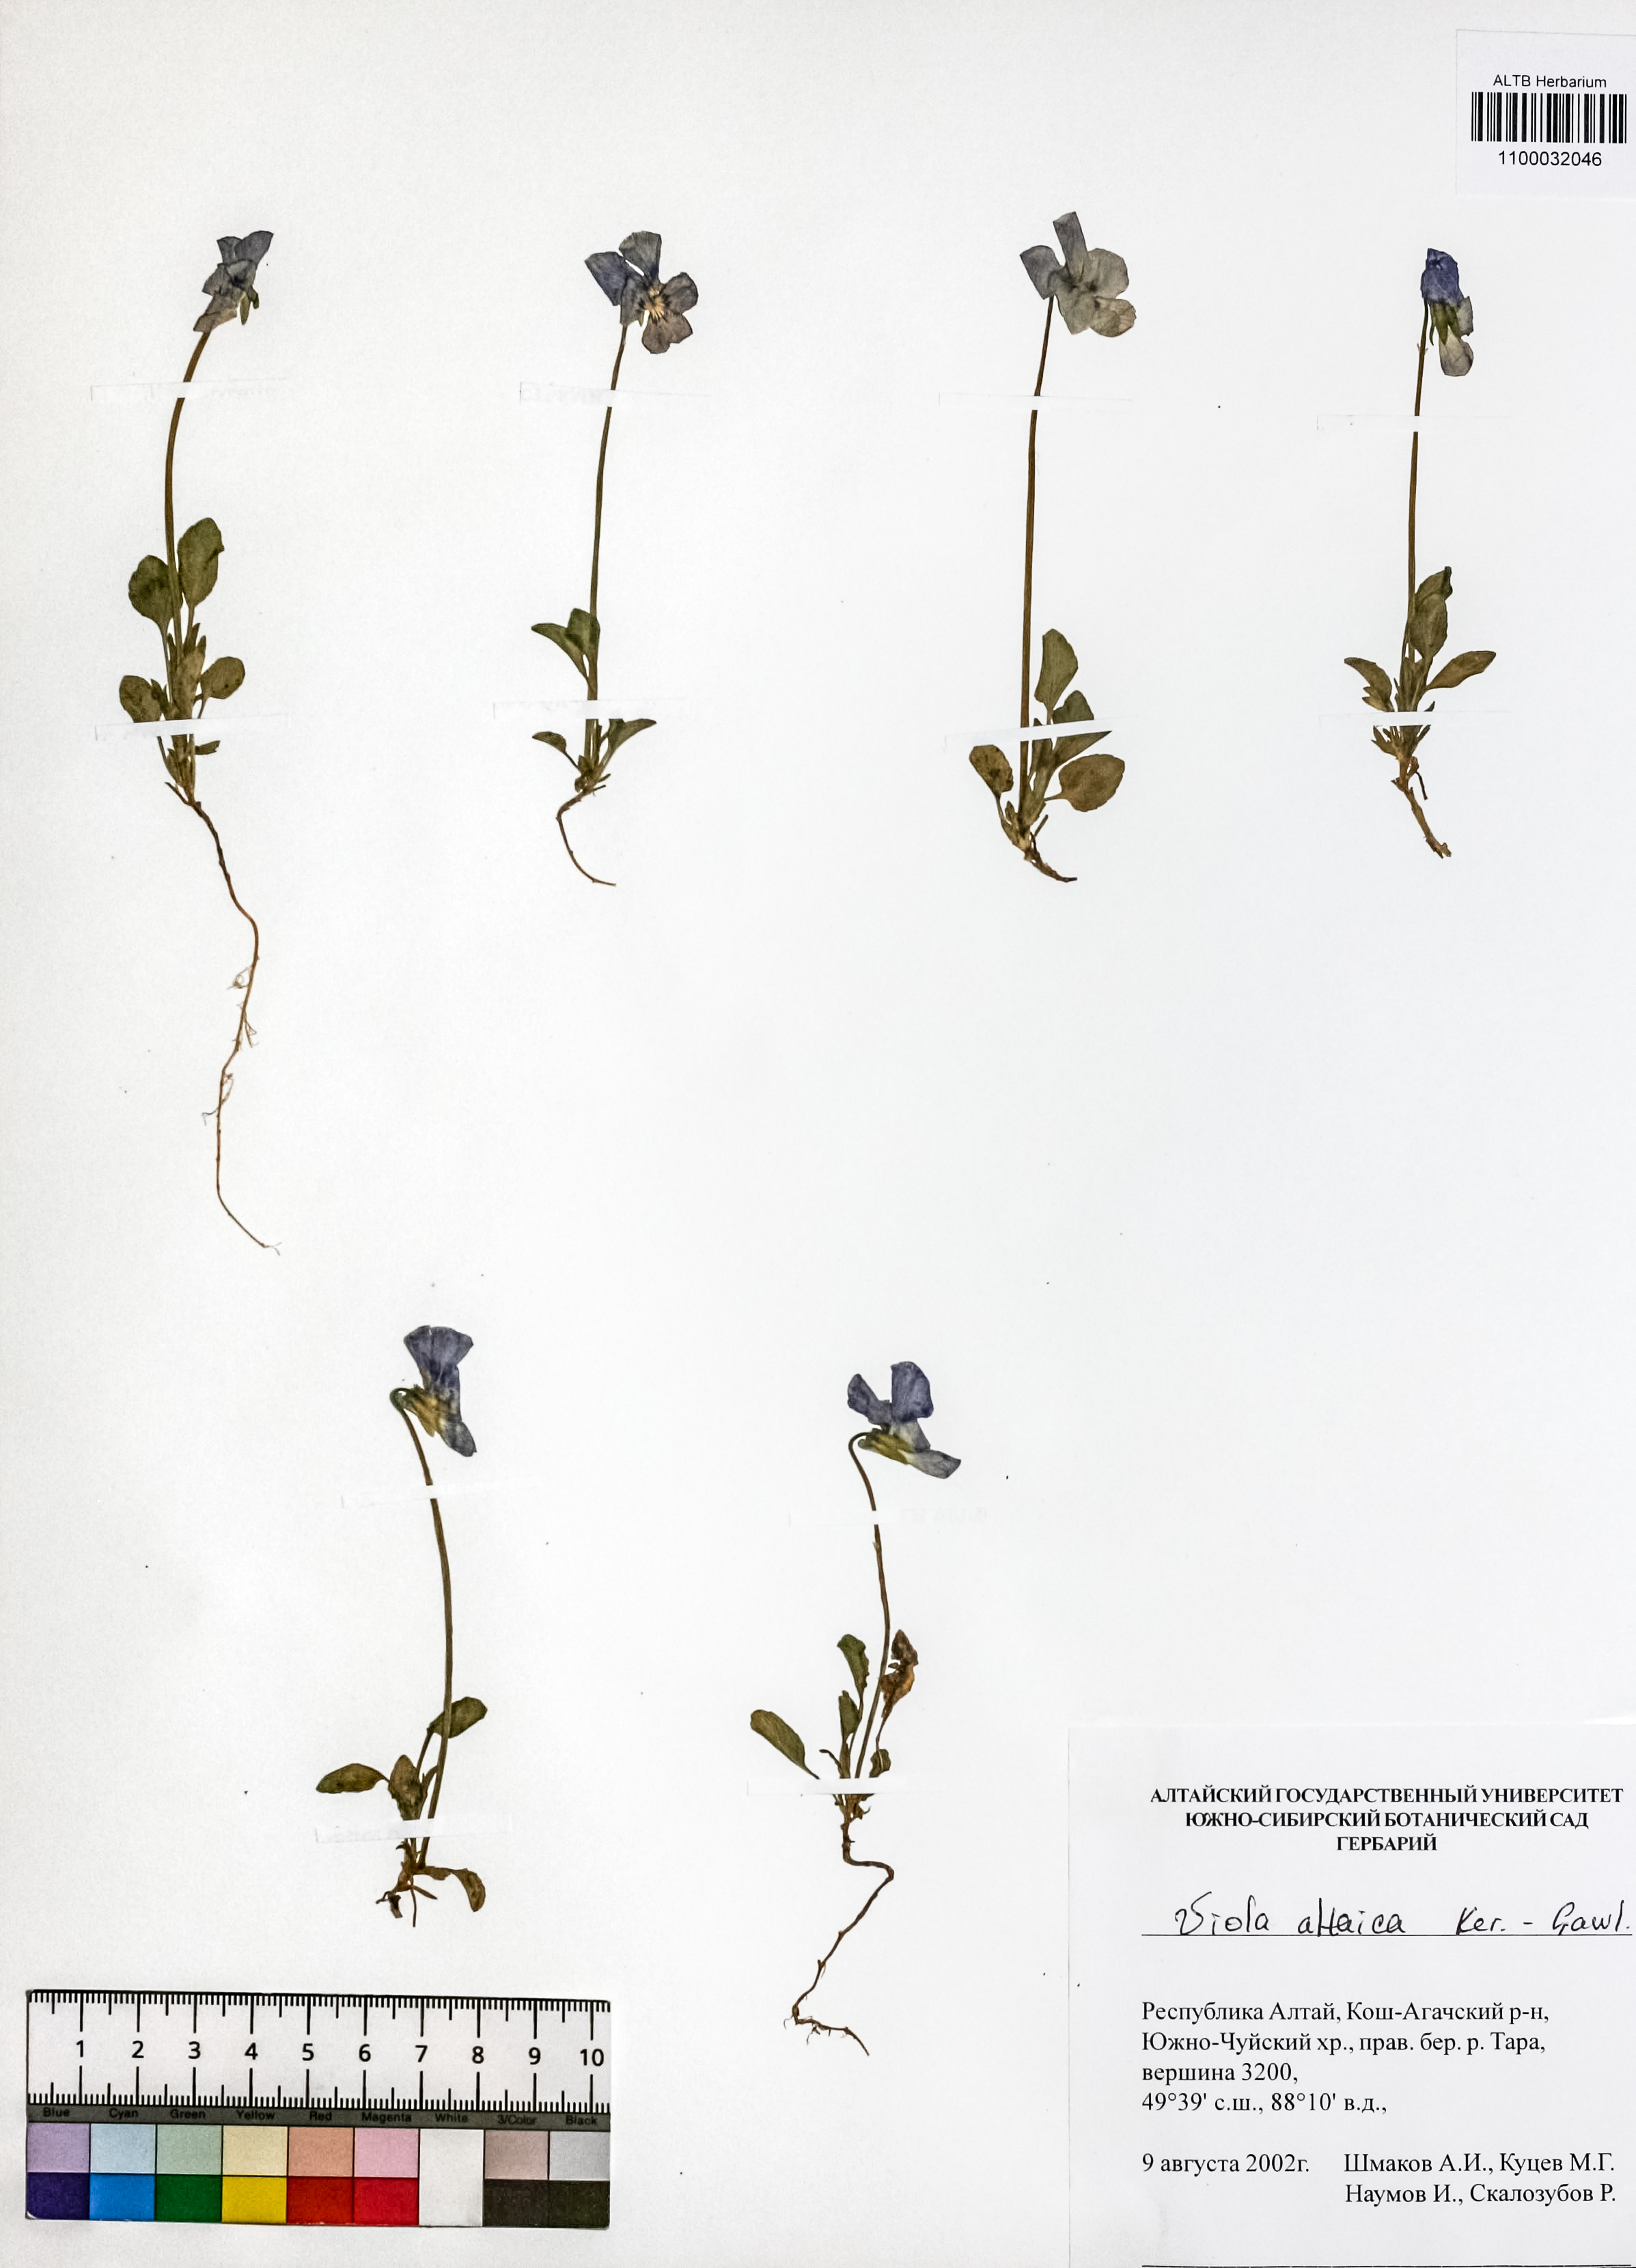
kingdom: Plantae
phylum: Tracheophyta
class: Magnoliopsida
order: Malpighiales
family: Violaceae
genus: Viola
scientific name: Viola altaica
